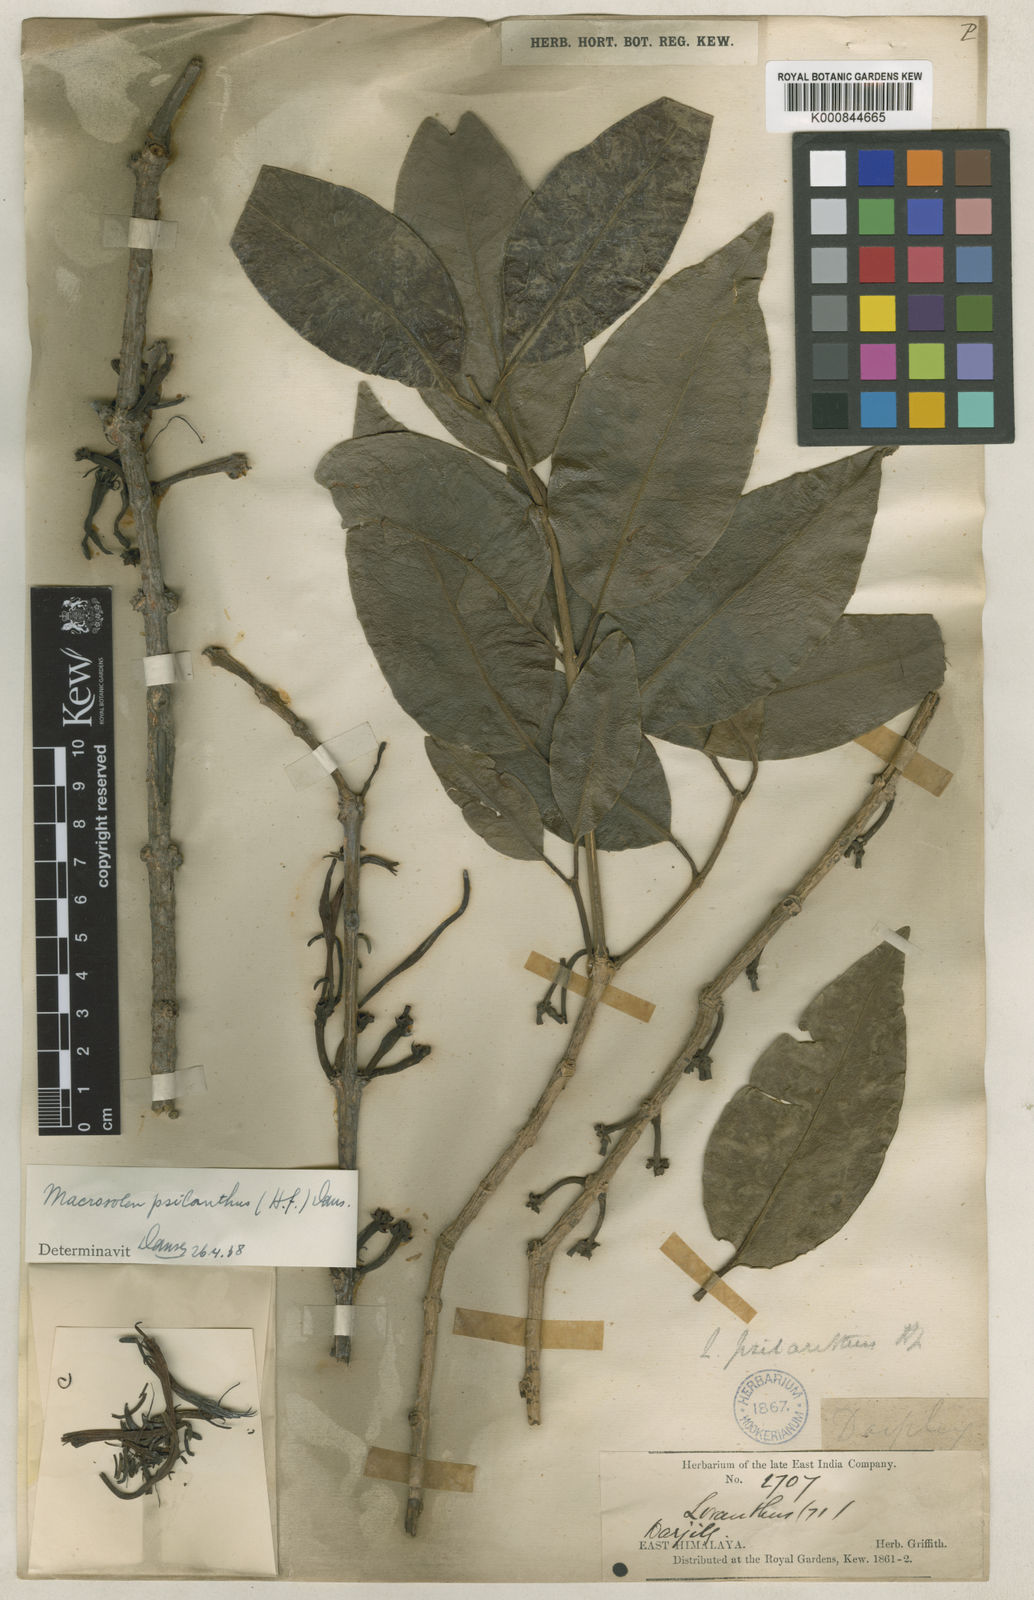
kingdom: Plantae
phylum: Tracheophyta
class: Magnoliopsida
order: Santalales
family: Loranthaceae
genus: Macrosolen
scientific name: Macrosolen psilanthus
